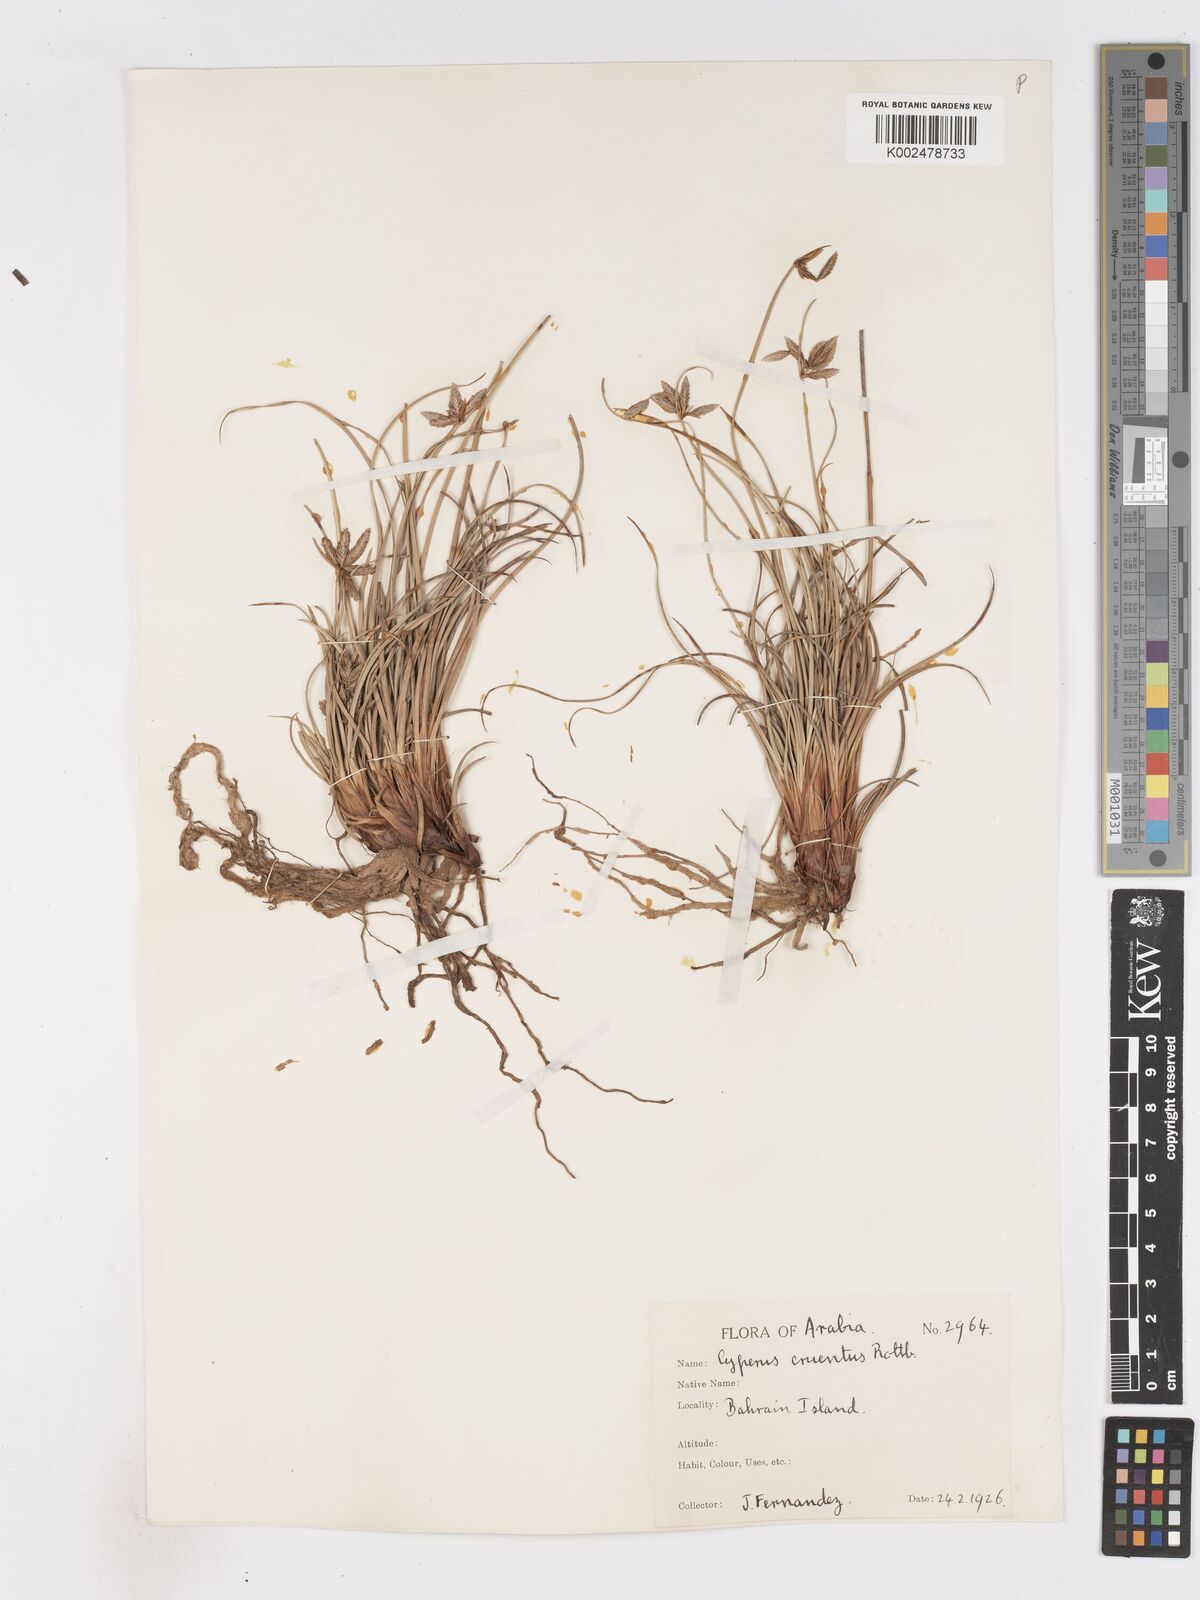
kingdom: Plantae
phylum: Tracheophyta
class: Liliopsida
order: Poales
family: Cyperaceae
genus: Cyperus
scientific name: Cyperus conglomeratus
